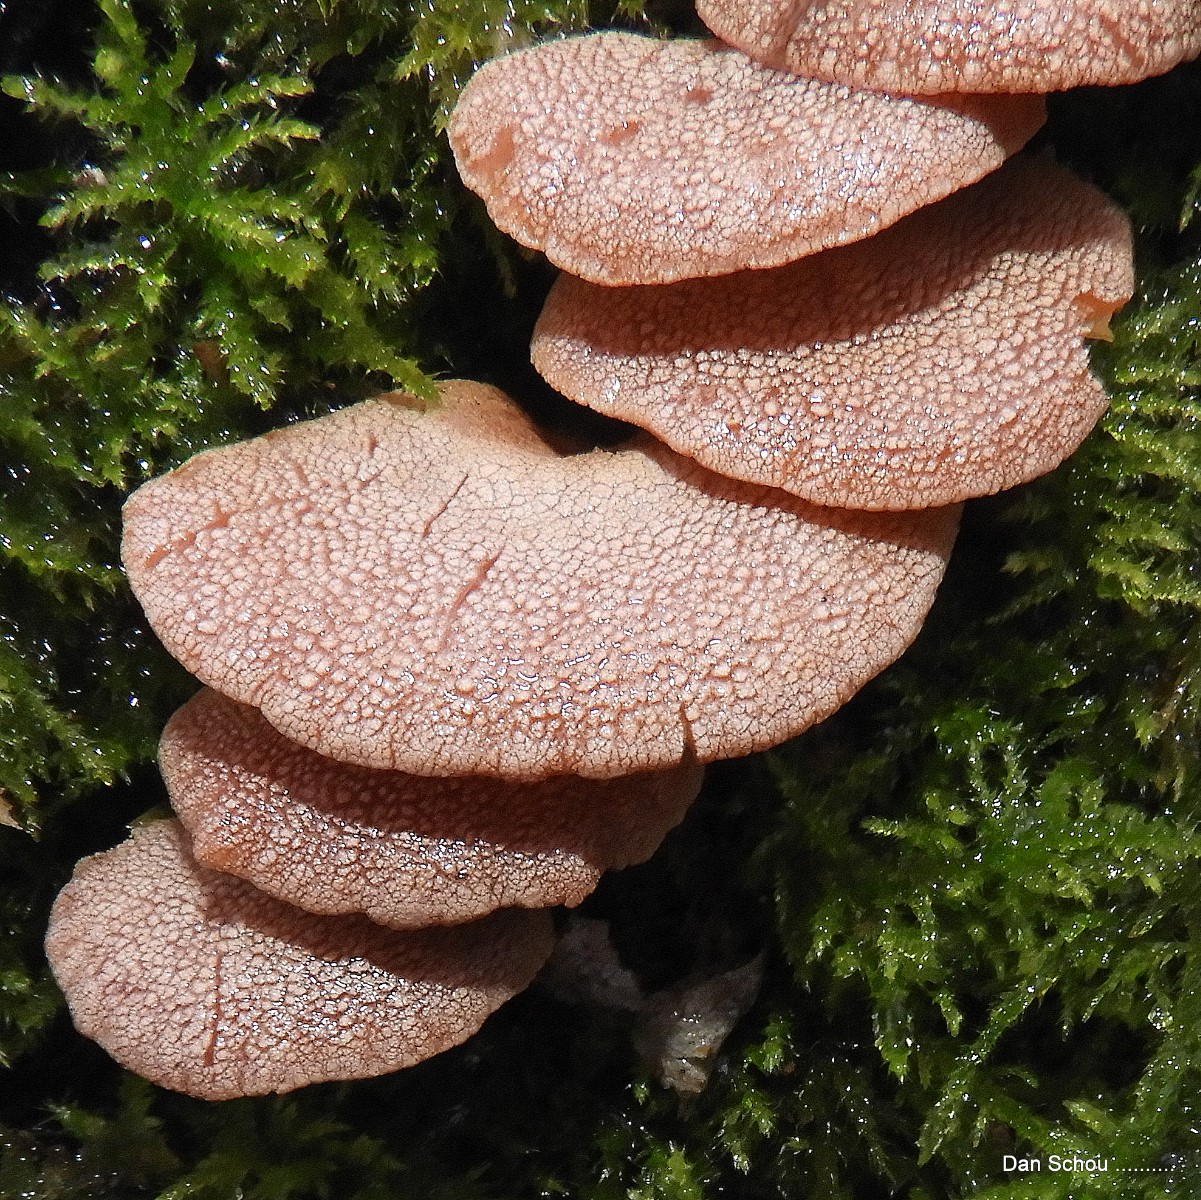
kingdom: Fungi
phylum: Basidiomycota
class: Agaricomycetes
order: Agaricales
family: Mycenaceae
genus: Panellus
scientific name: Panellus stipticus
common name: kliddet epaulethat
